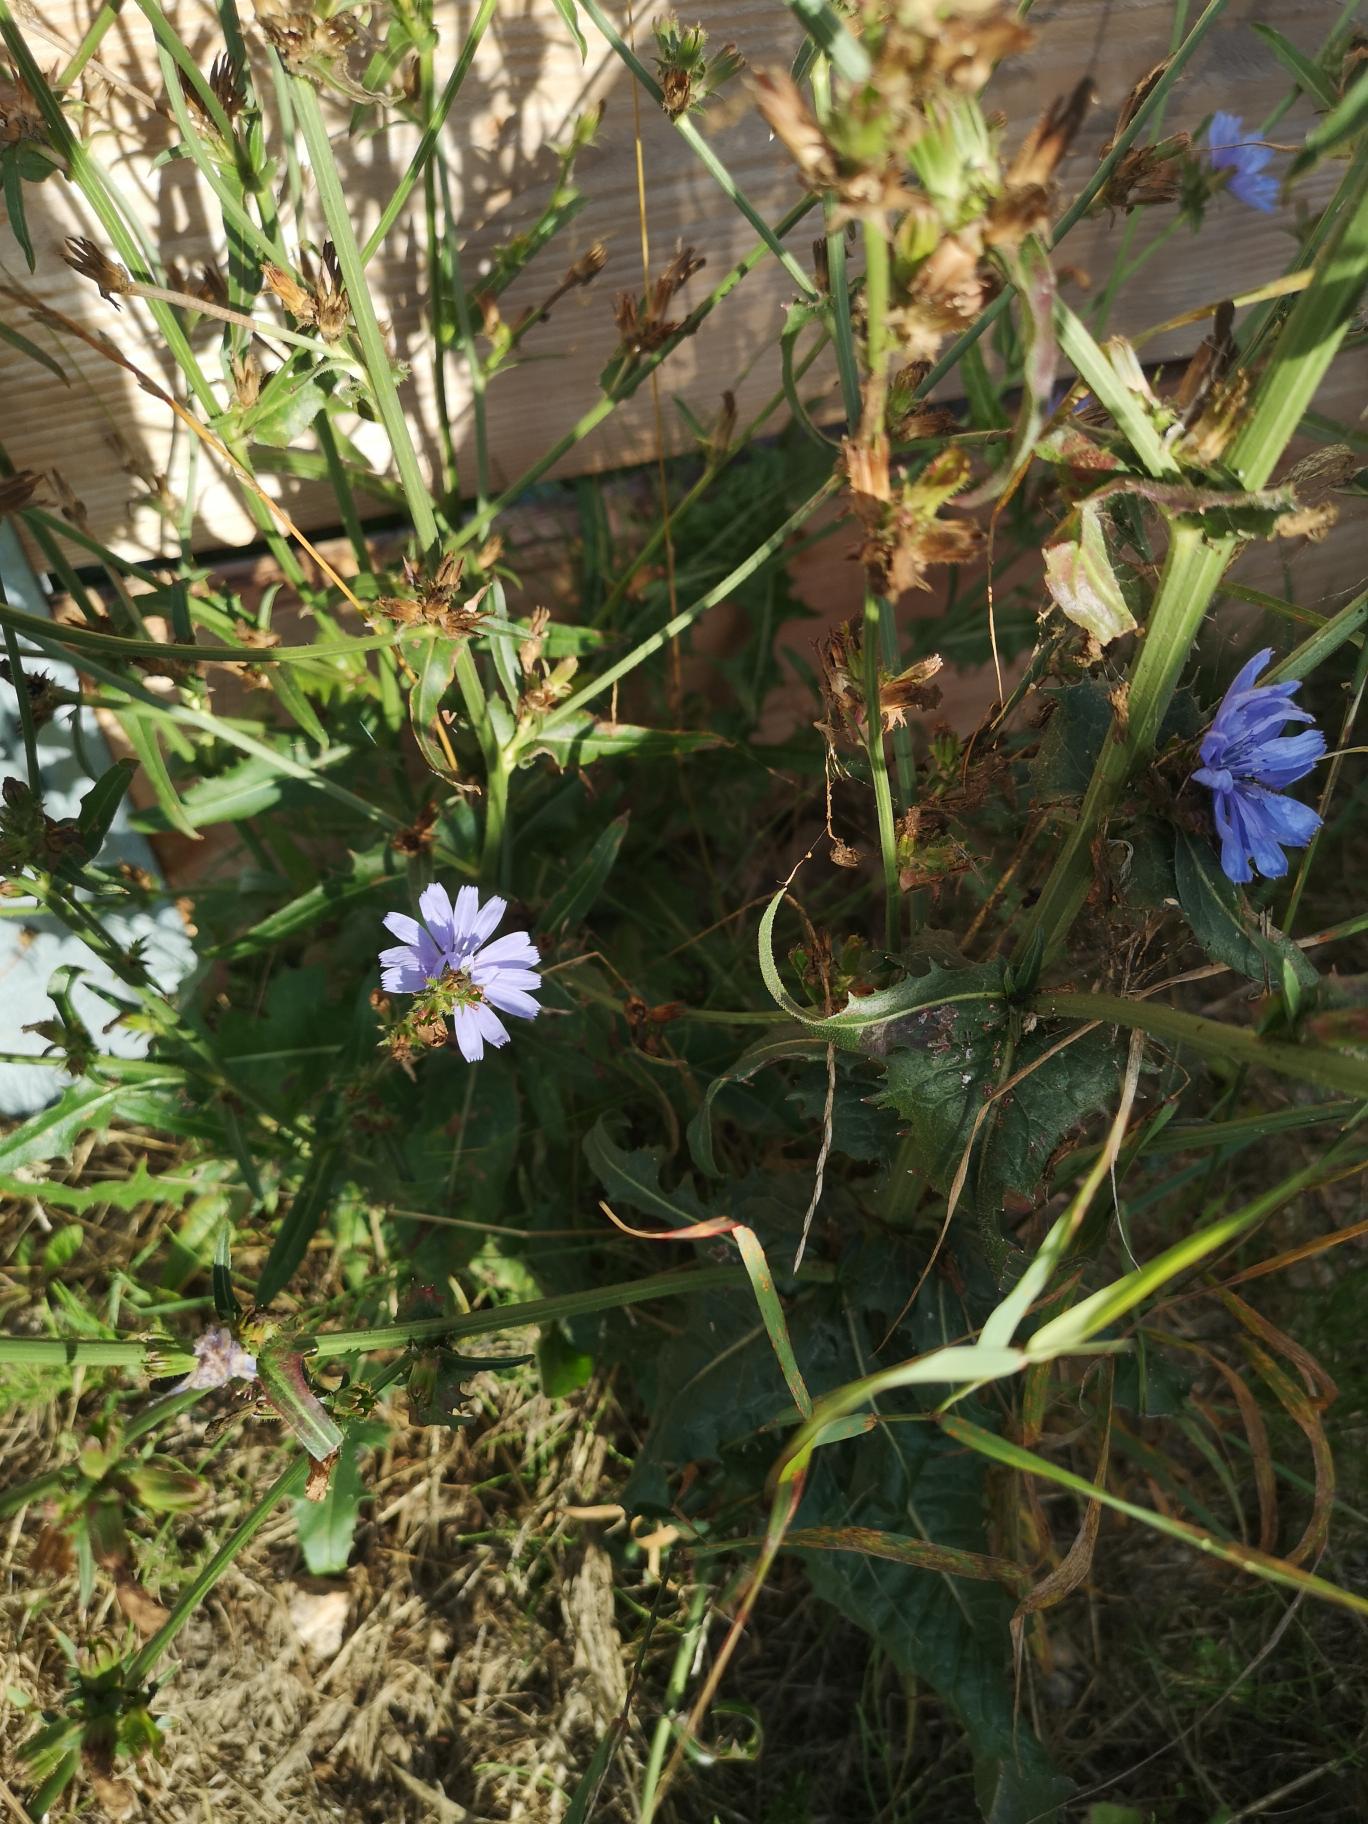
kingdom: Plantae
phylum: Tracheophyta
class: Magnoliopsida
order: Asterales
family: Asteraceae
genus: Cichorium
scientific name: Cichorium intybus
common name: Cikorie
